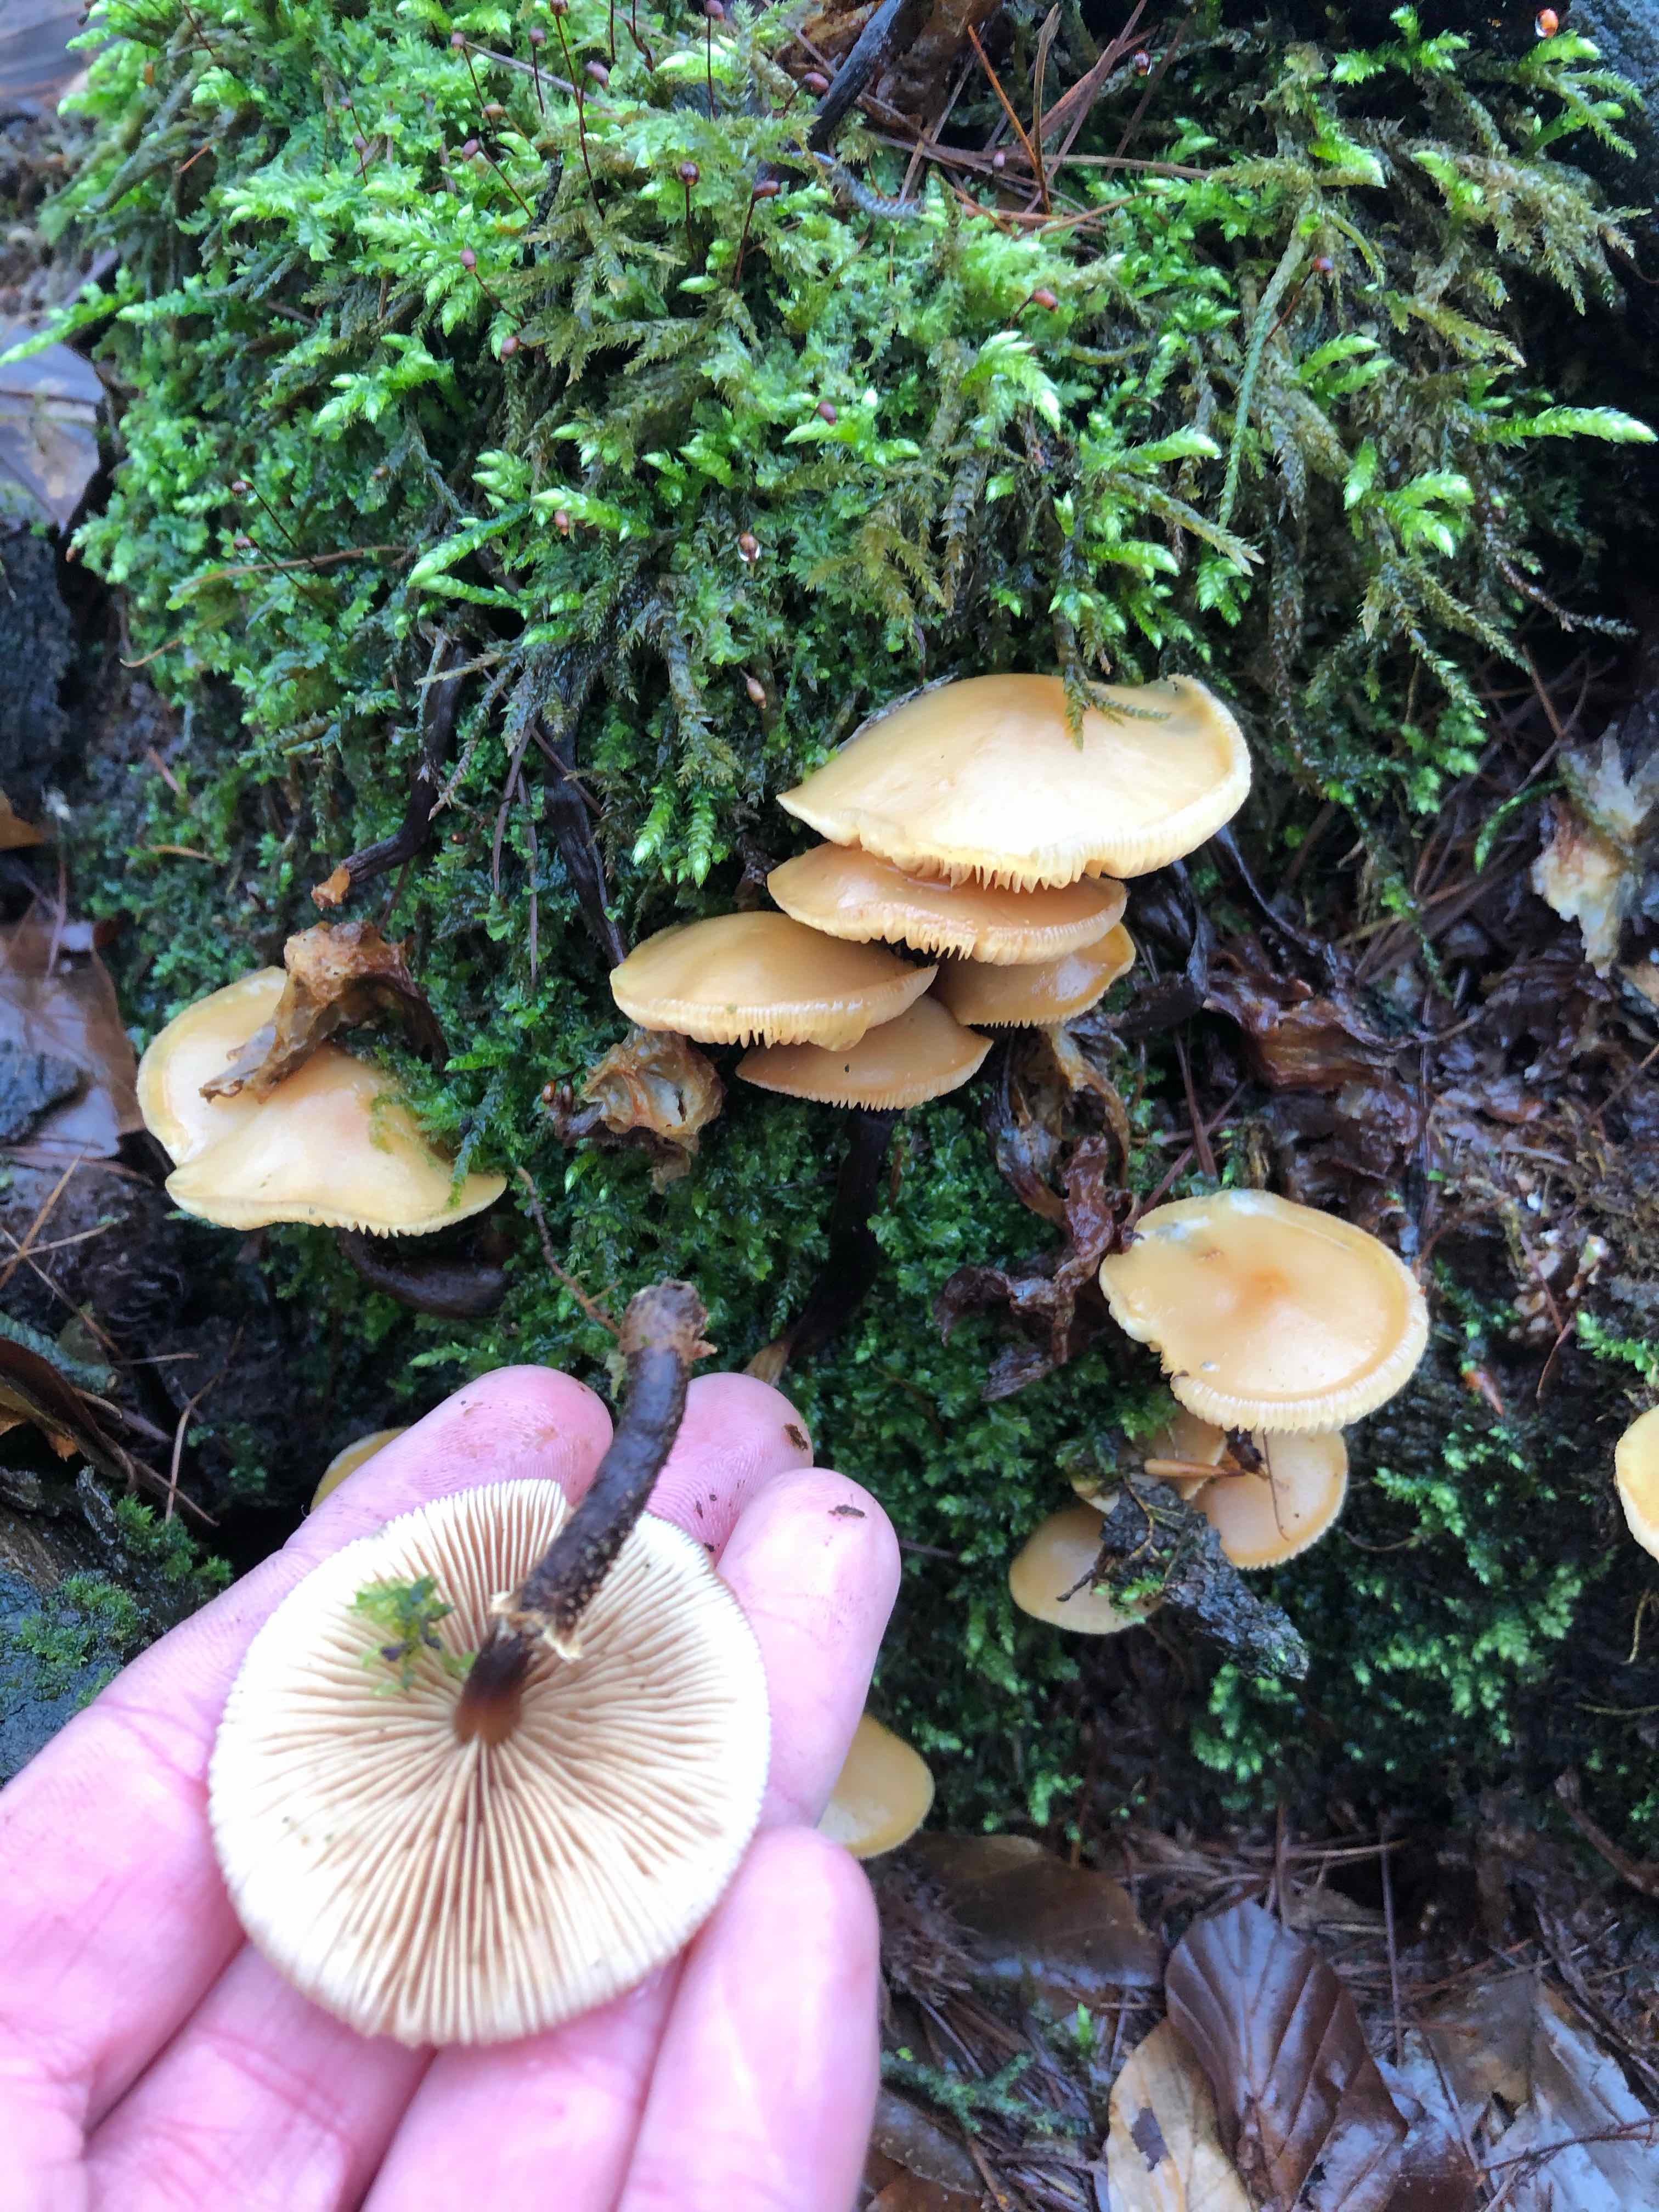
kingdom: Fungi
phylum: Basidiomycota
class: Agaricomycetes
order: Agaricales
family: Strophariaceae
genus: Kuehneromyces
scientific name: Kuehneromyces mutabilis
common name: foranderlig skælhat
